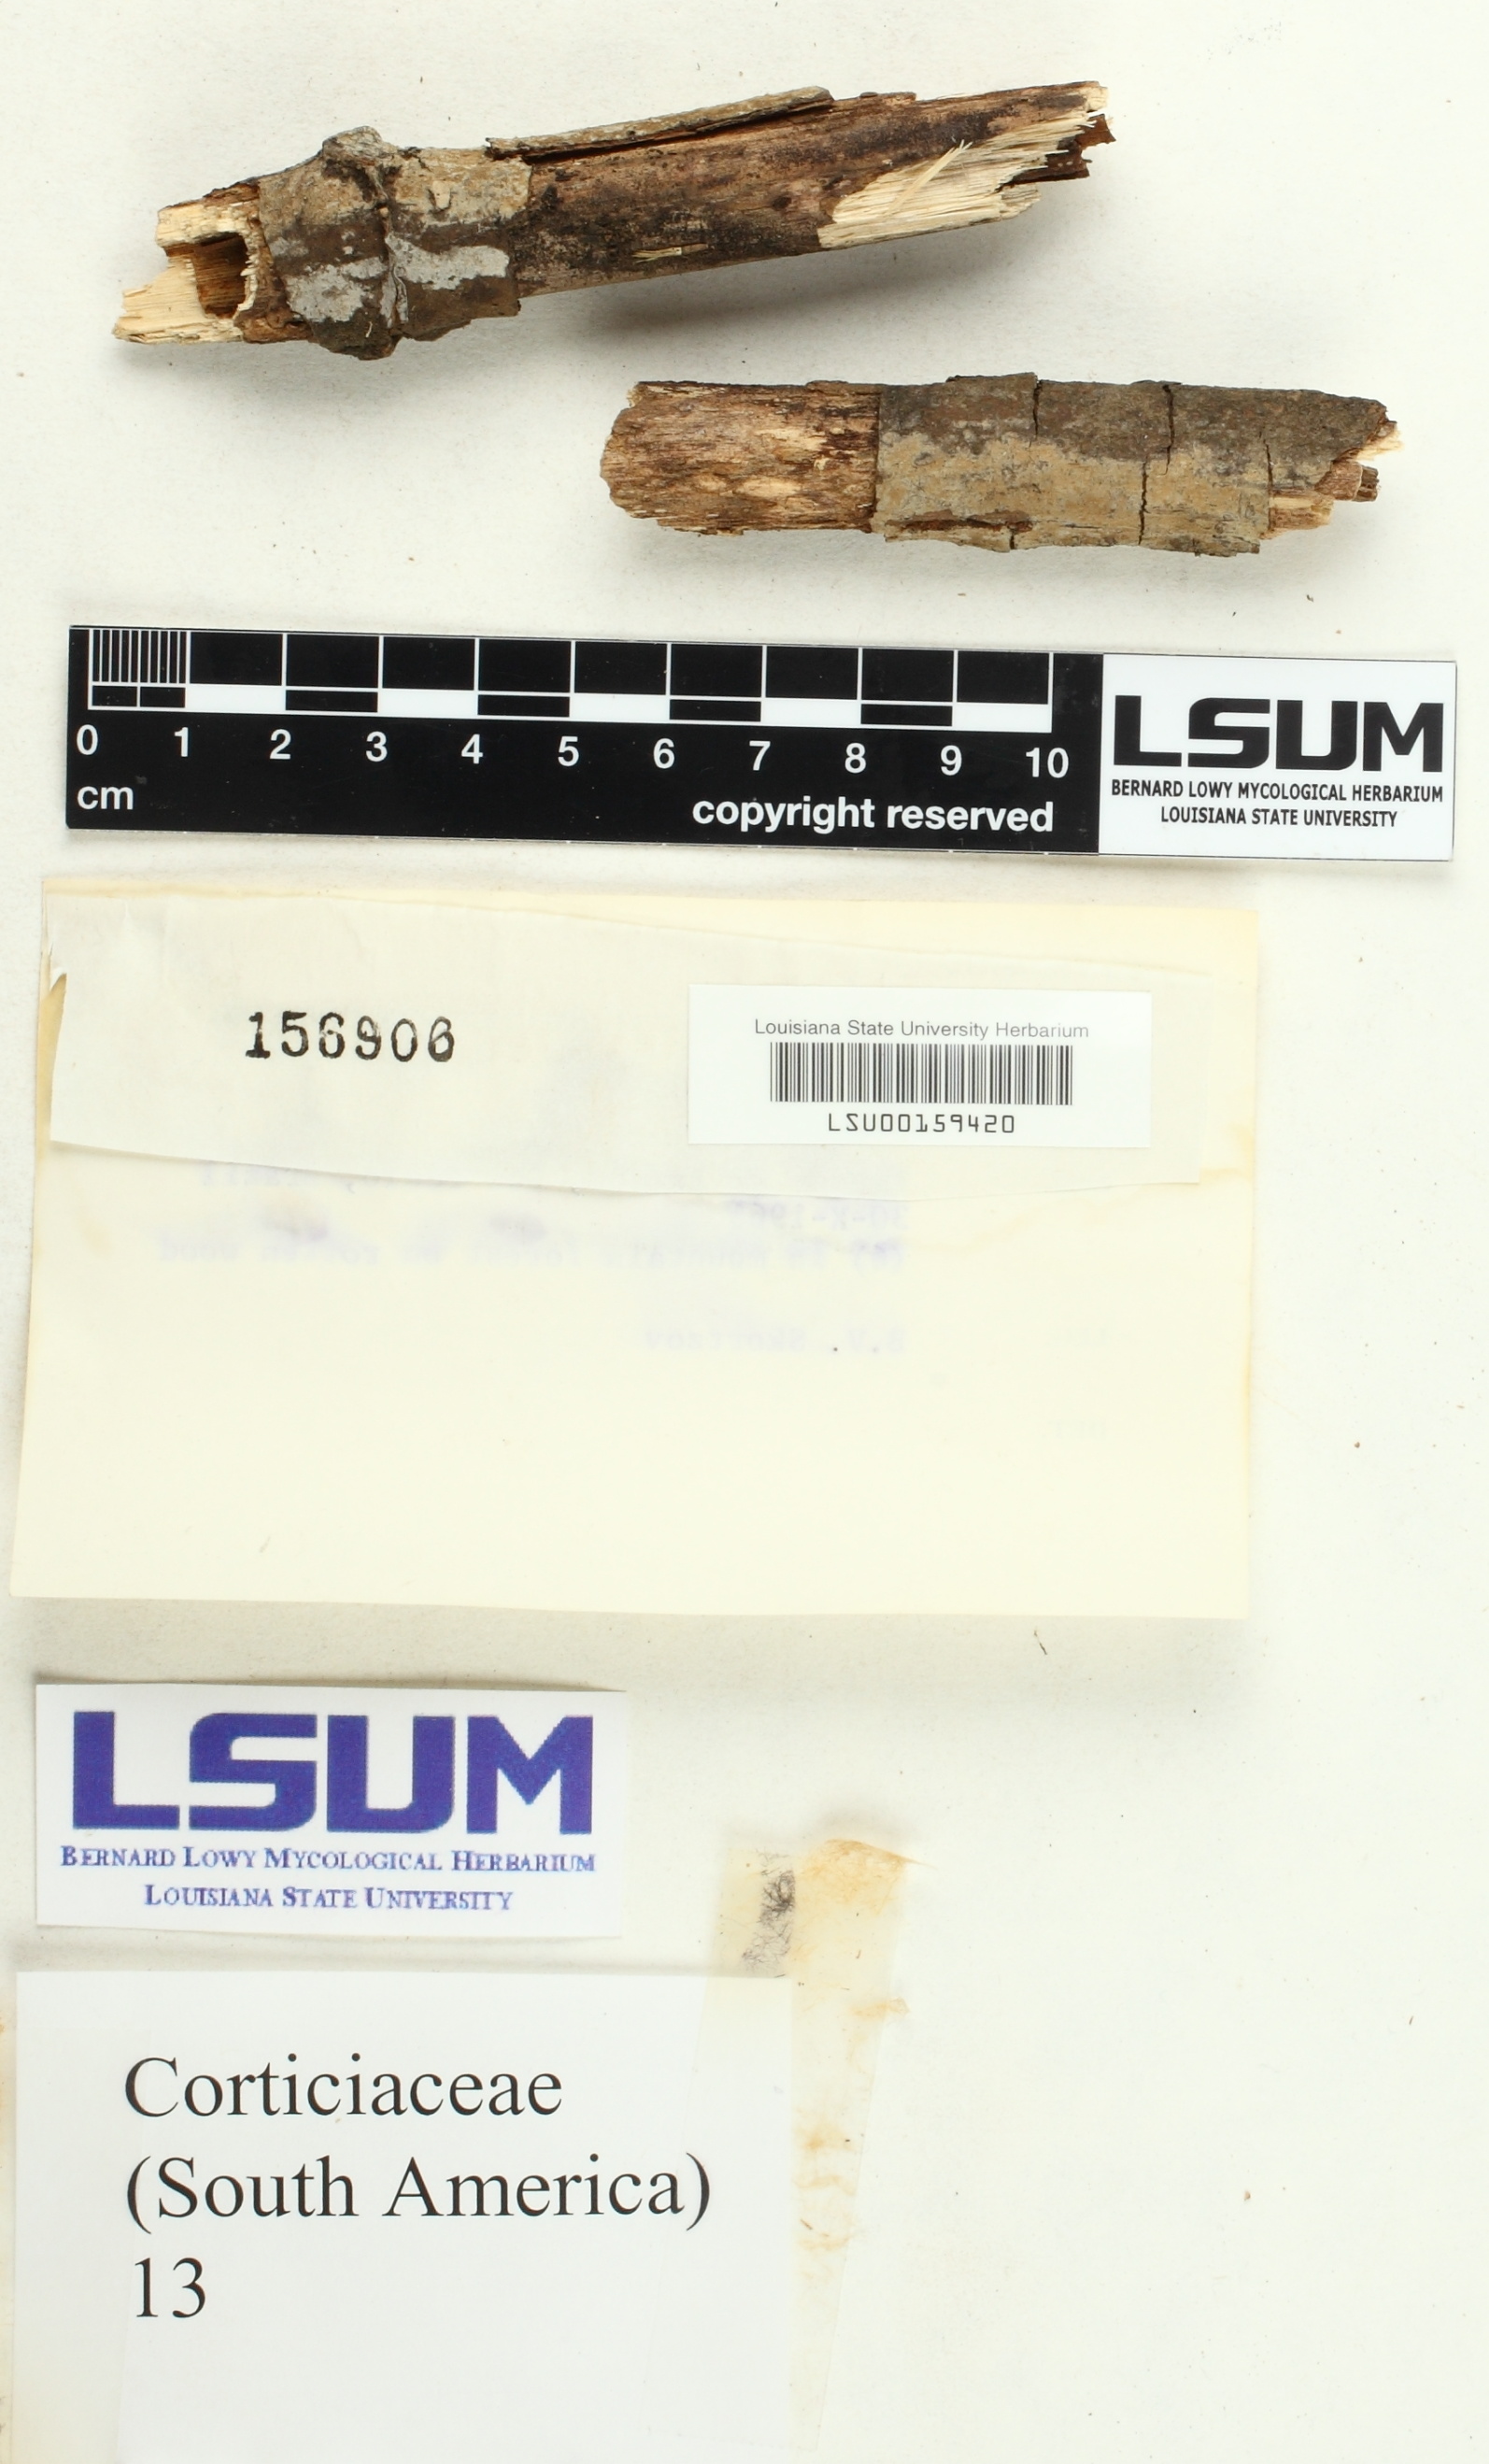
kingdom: Fungi
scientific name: Fungi
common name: Fungi
